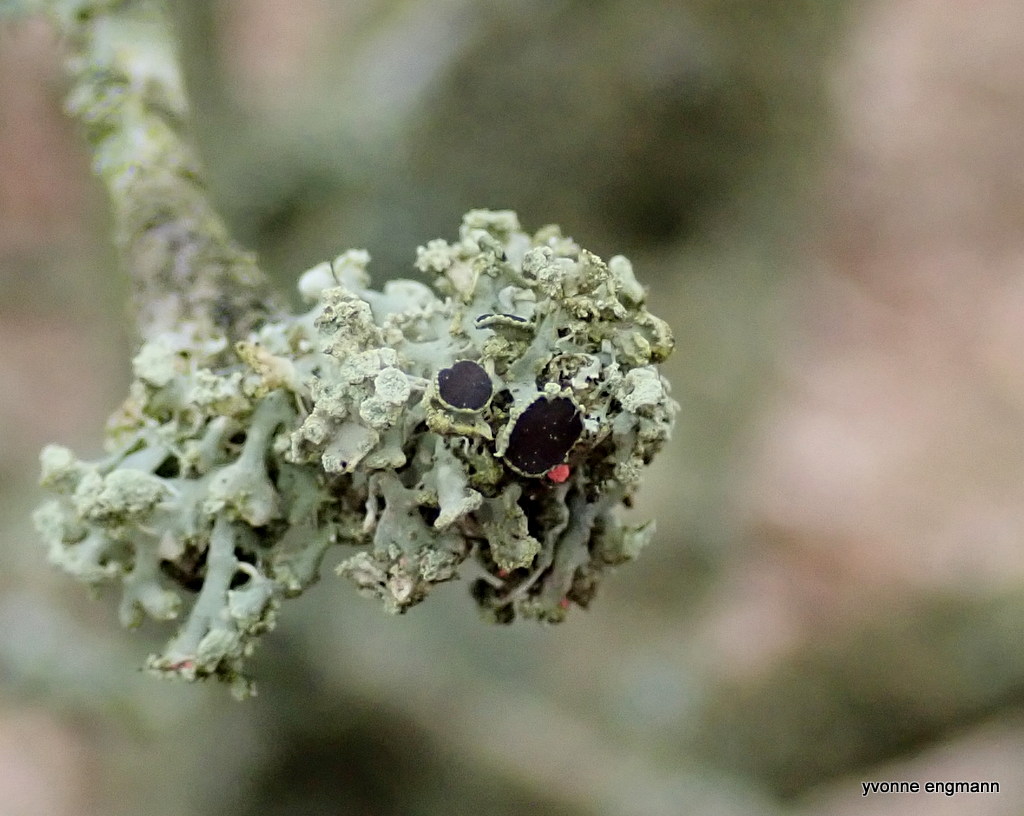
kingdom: Fungi
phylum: Ascomycota
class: Lecanoromycetes
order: Caliciales
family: Physciaceae
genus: Physcia
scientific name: Physcia tenella
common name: spæd rosetlav
